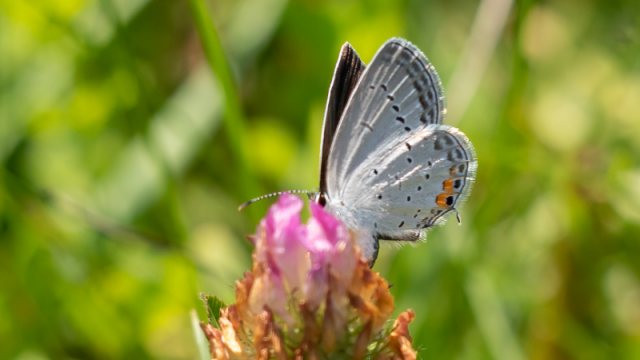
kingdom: Animalia
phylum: Arthropoda
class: Insecta
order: Lepidoptera
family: Lycaenidae
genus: Elkalyce
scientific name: Elkalyce comyntas
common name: Eastern Tailed-Blue
